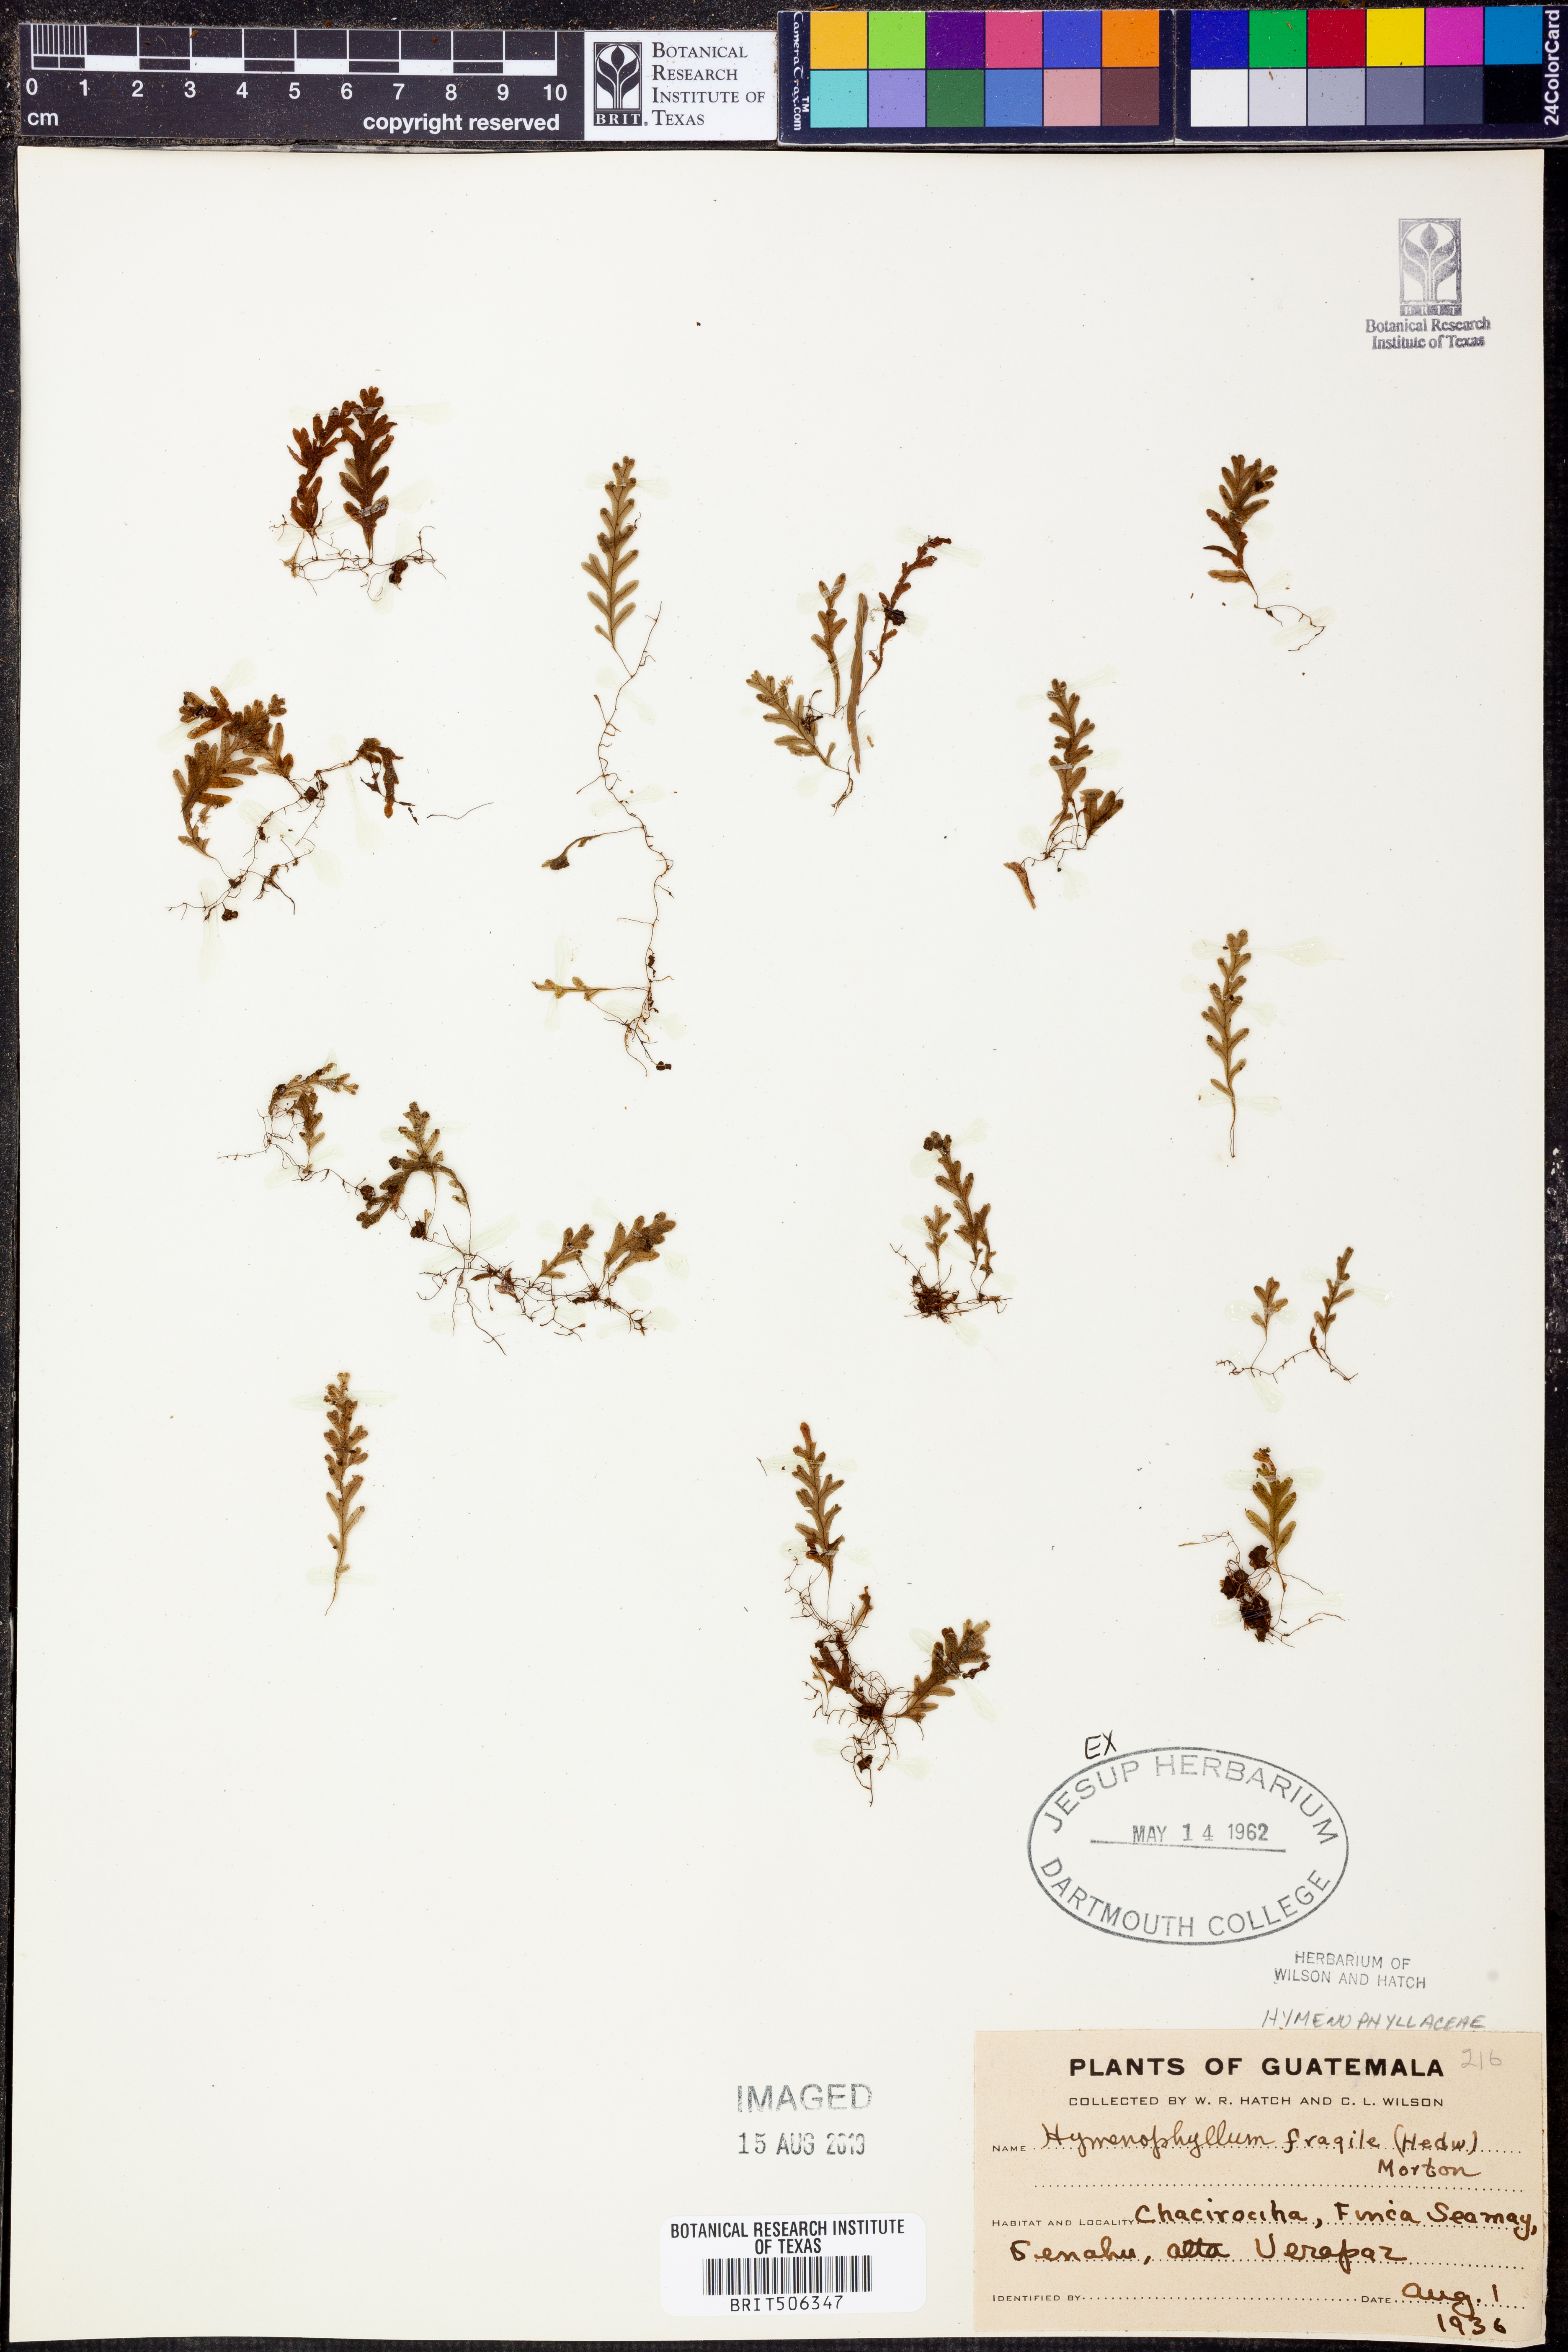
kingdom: Plantae
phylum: Tracheophyta
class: Polypodiopsida
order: Hymenophyllales
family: Hymenophyllaceae
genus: Hymenophyllum
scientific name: Hymenophyllum fragile
